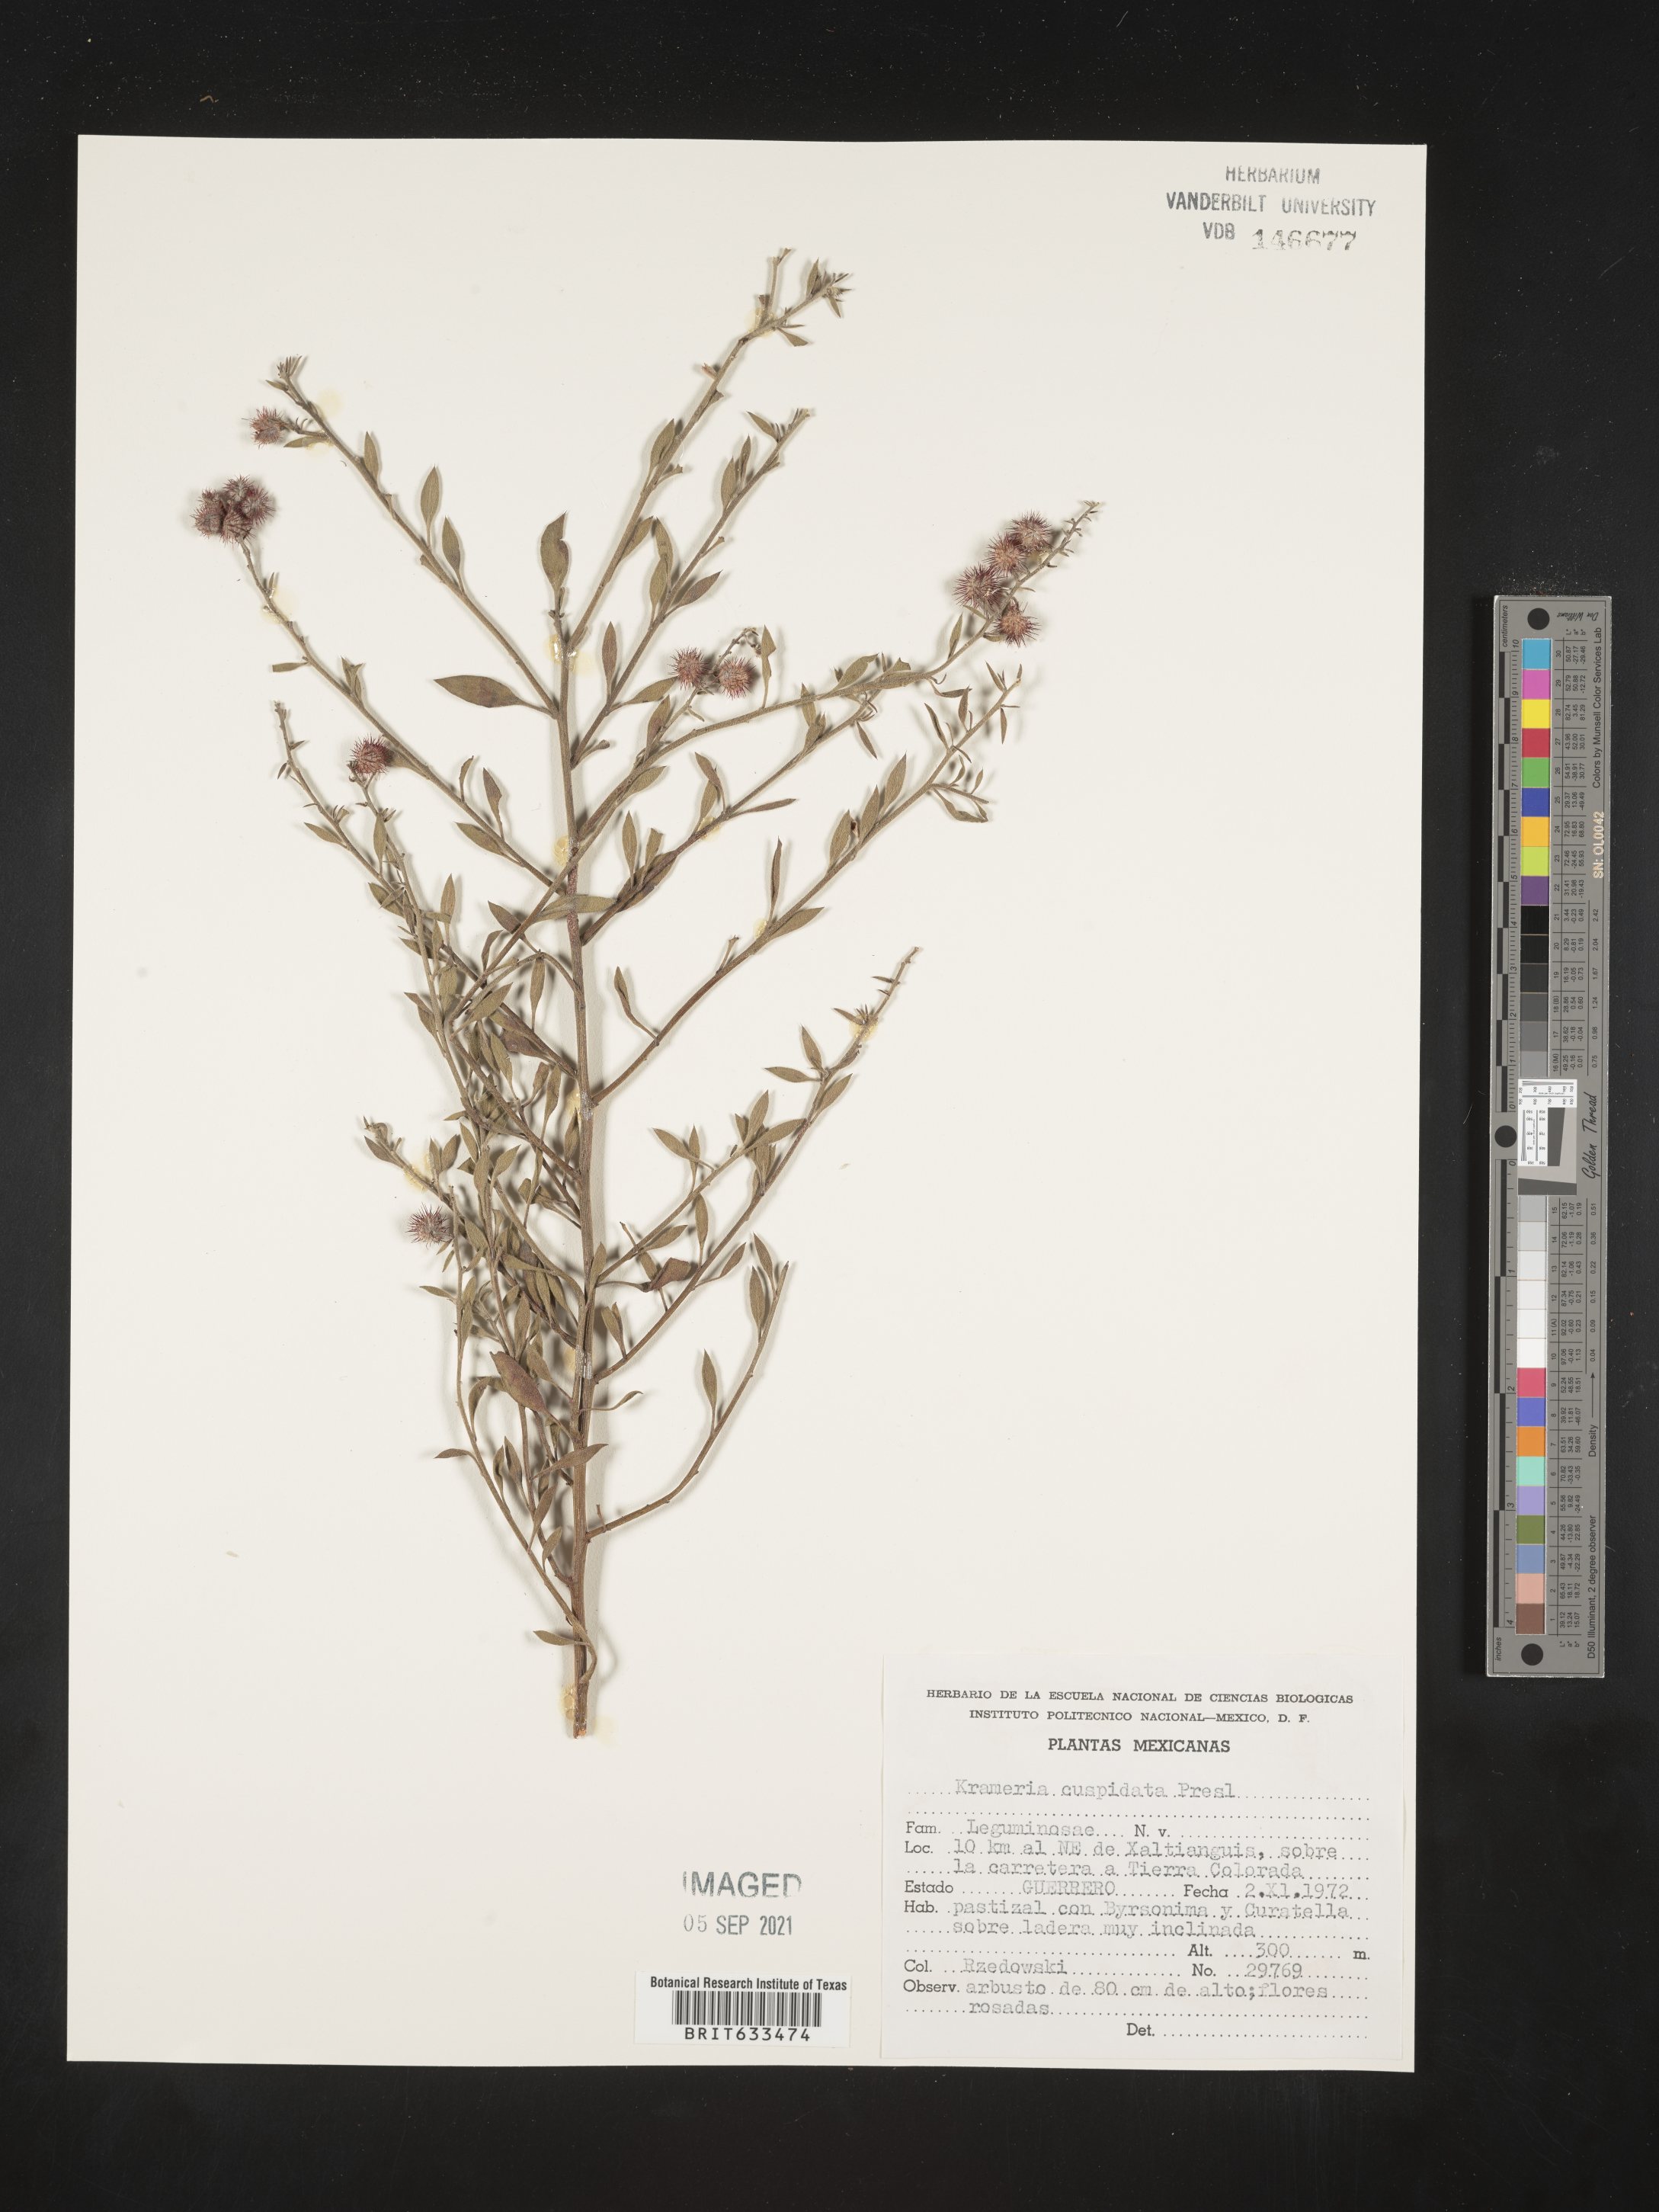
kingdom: Plantae
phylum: Tracheophyta
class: Magnoliopsida
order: Zygophyllales
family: Krameriaceae
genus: Krameria
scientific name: Krameria
